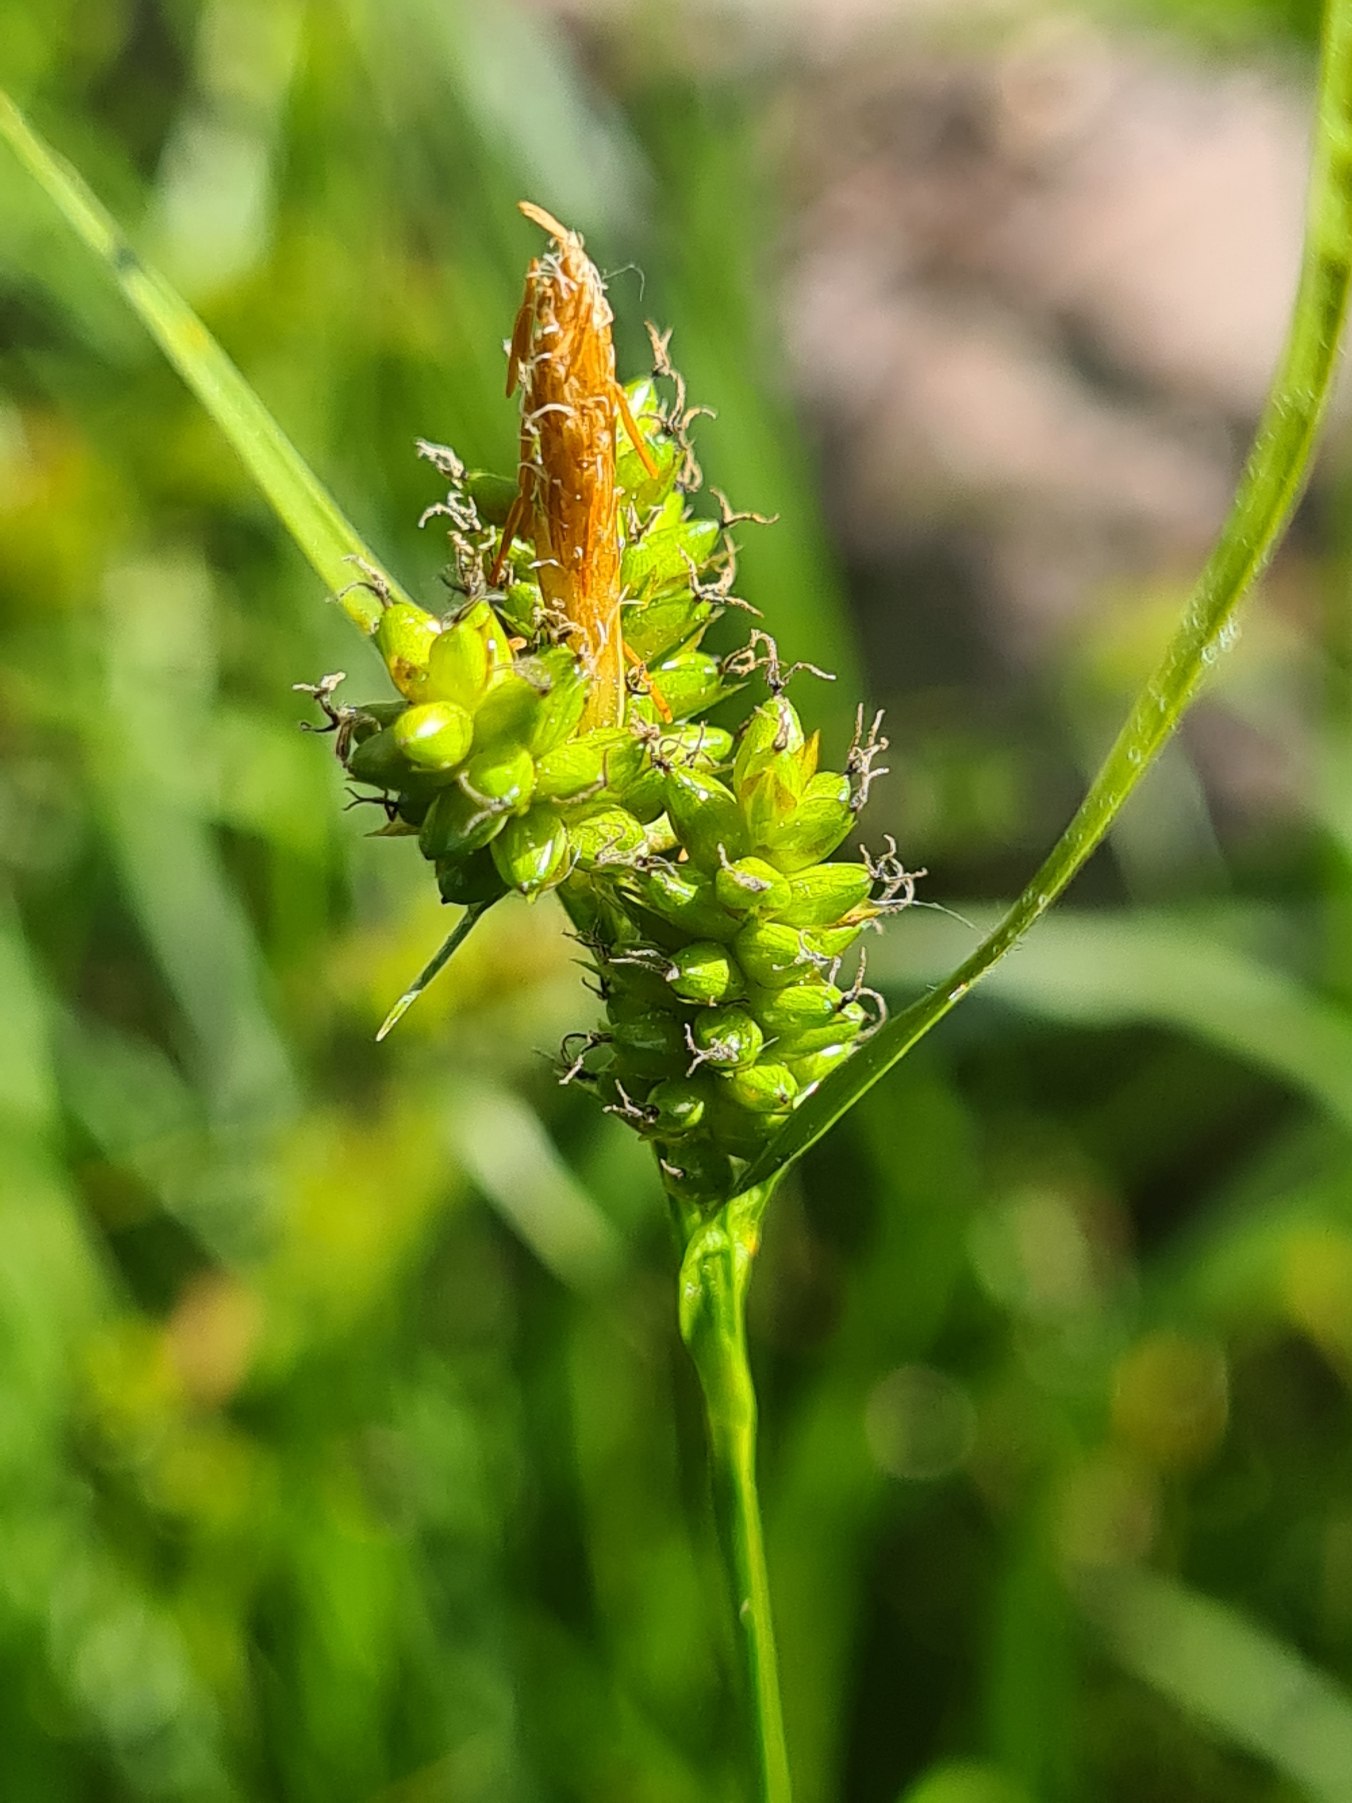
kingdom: Plantae
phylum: Tracheophyta
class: Liliopsida
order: Poales
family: Cyperaceae
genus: Carex
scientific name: Carex pallescens
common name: Bleg star
